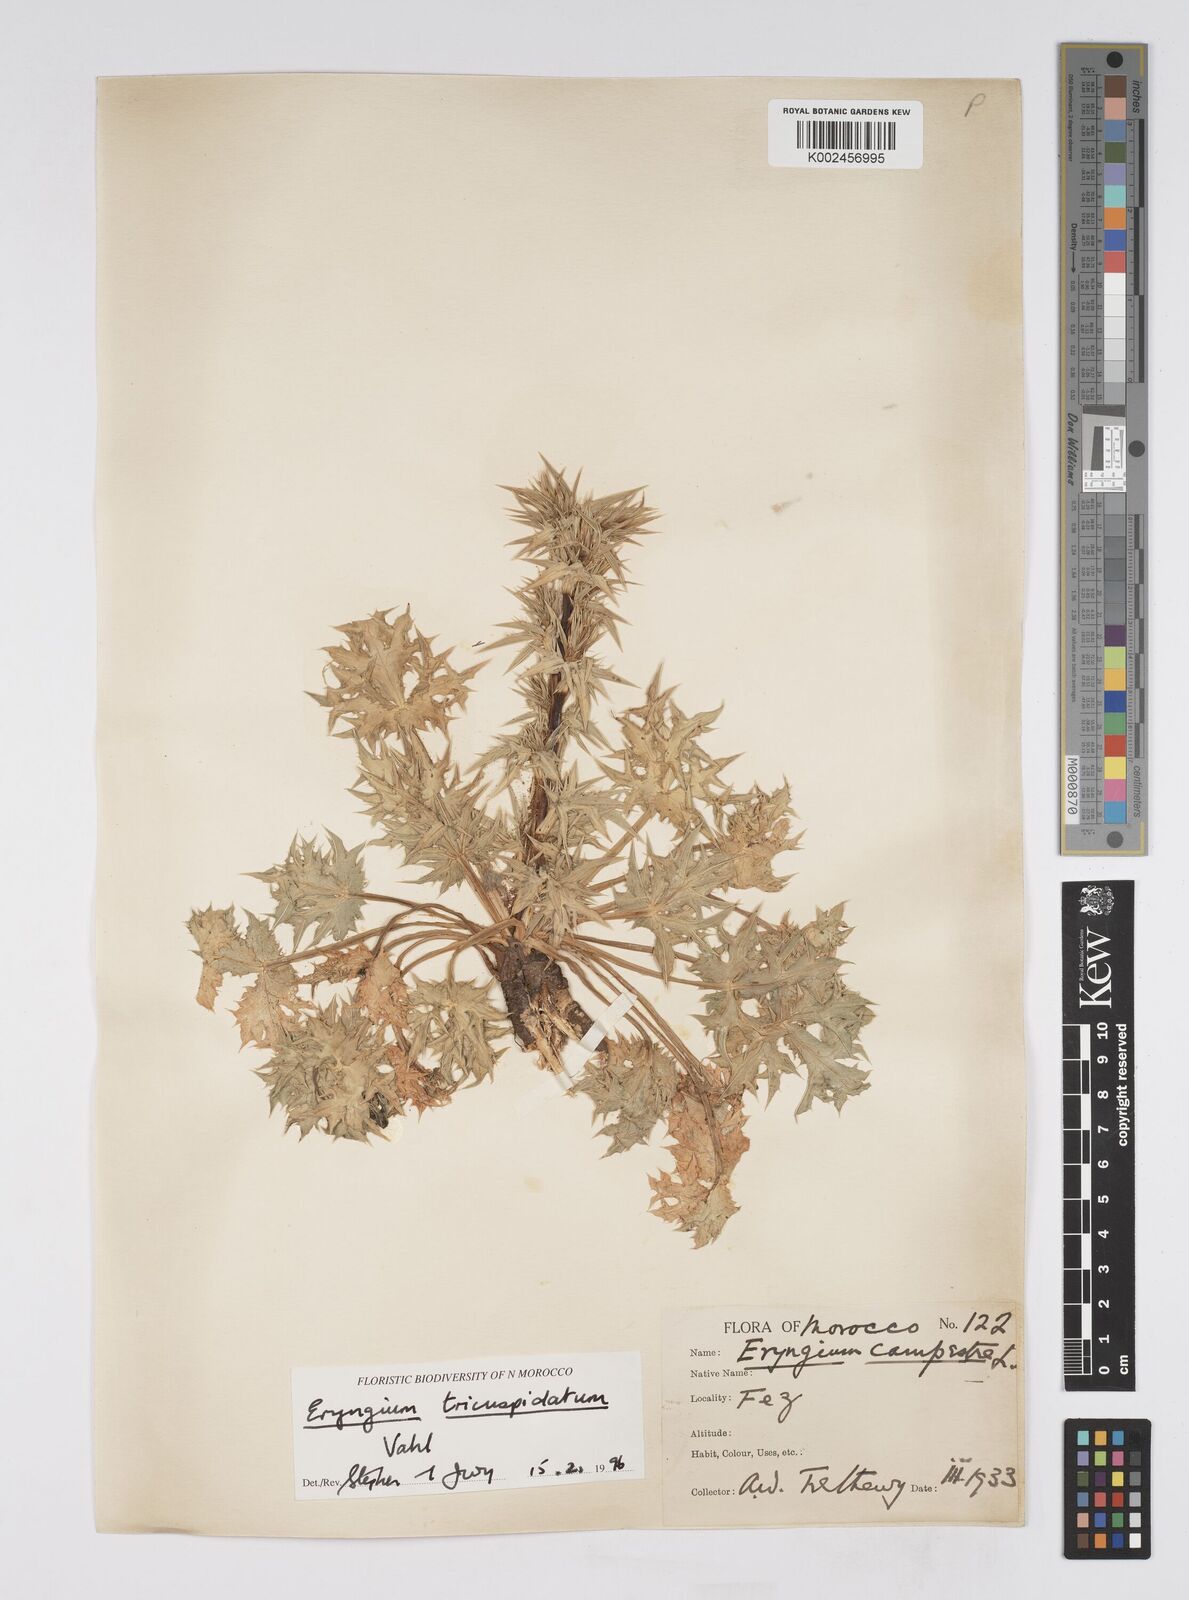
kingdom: Plantae
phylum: Tracheophyta
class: Magnoliopsida
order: Apiales
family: Apiaceae
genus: Eryngium
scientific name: Eryngium
